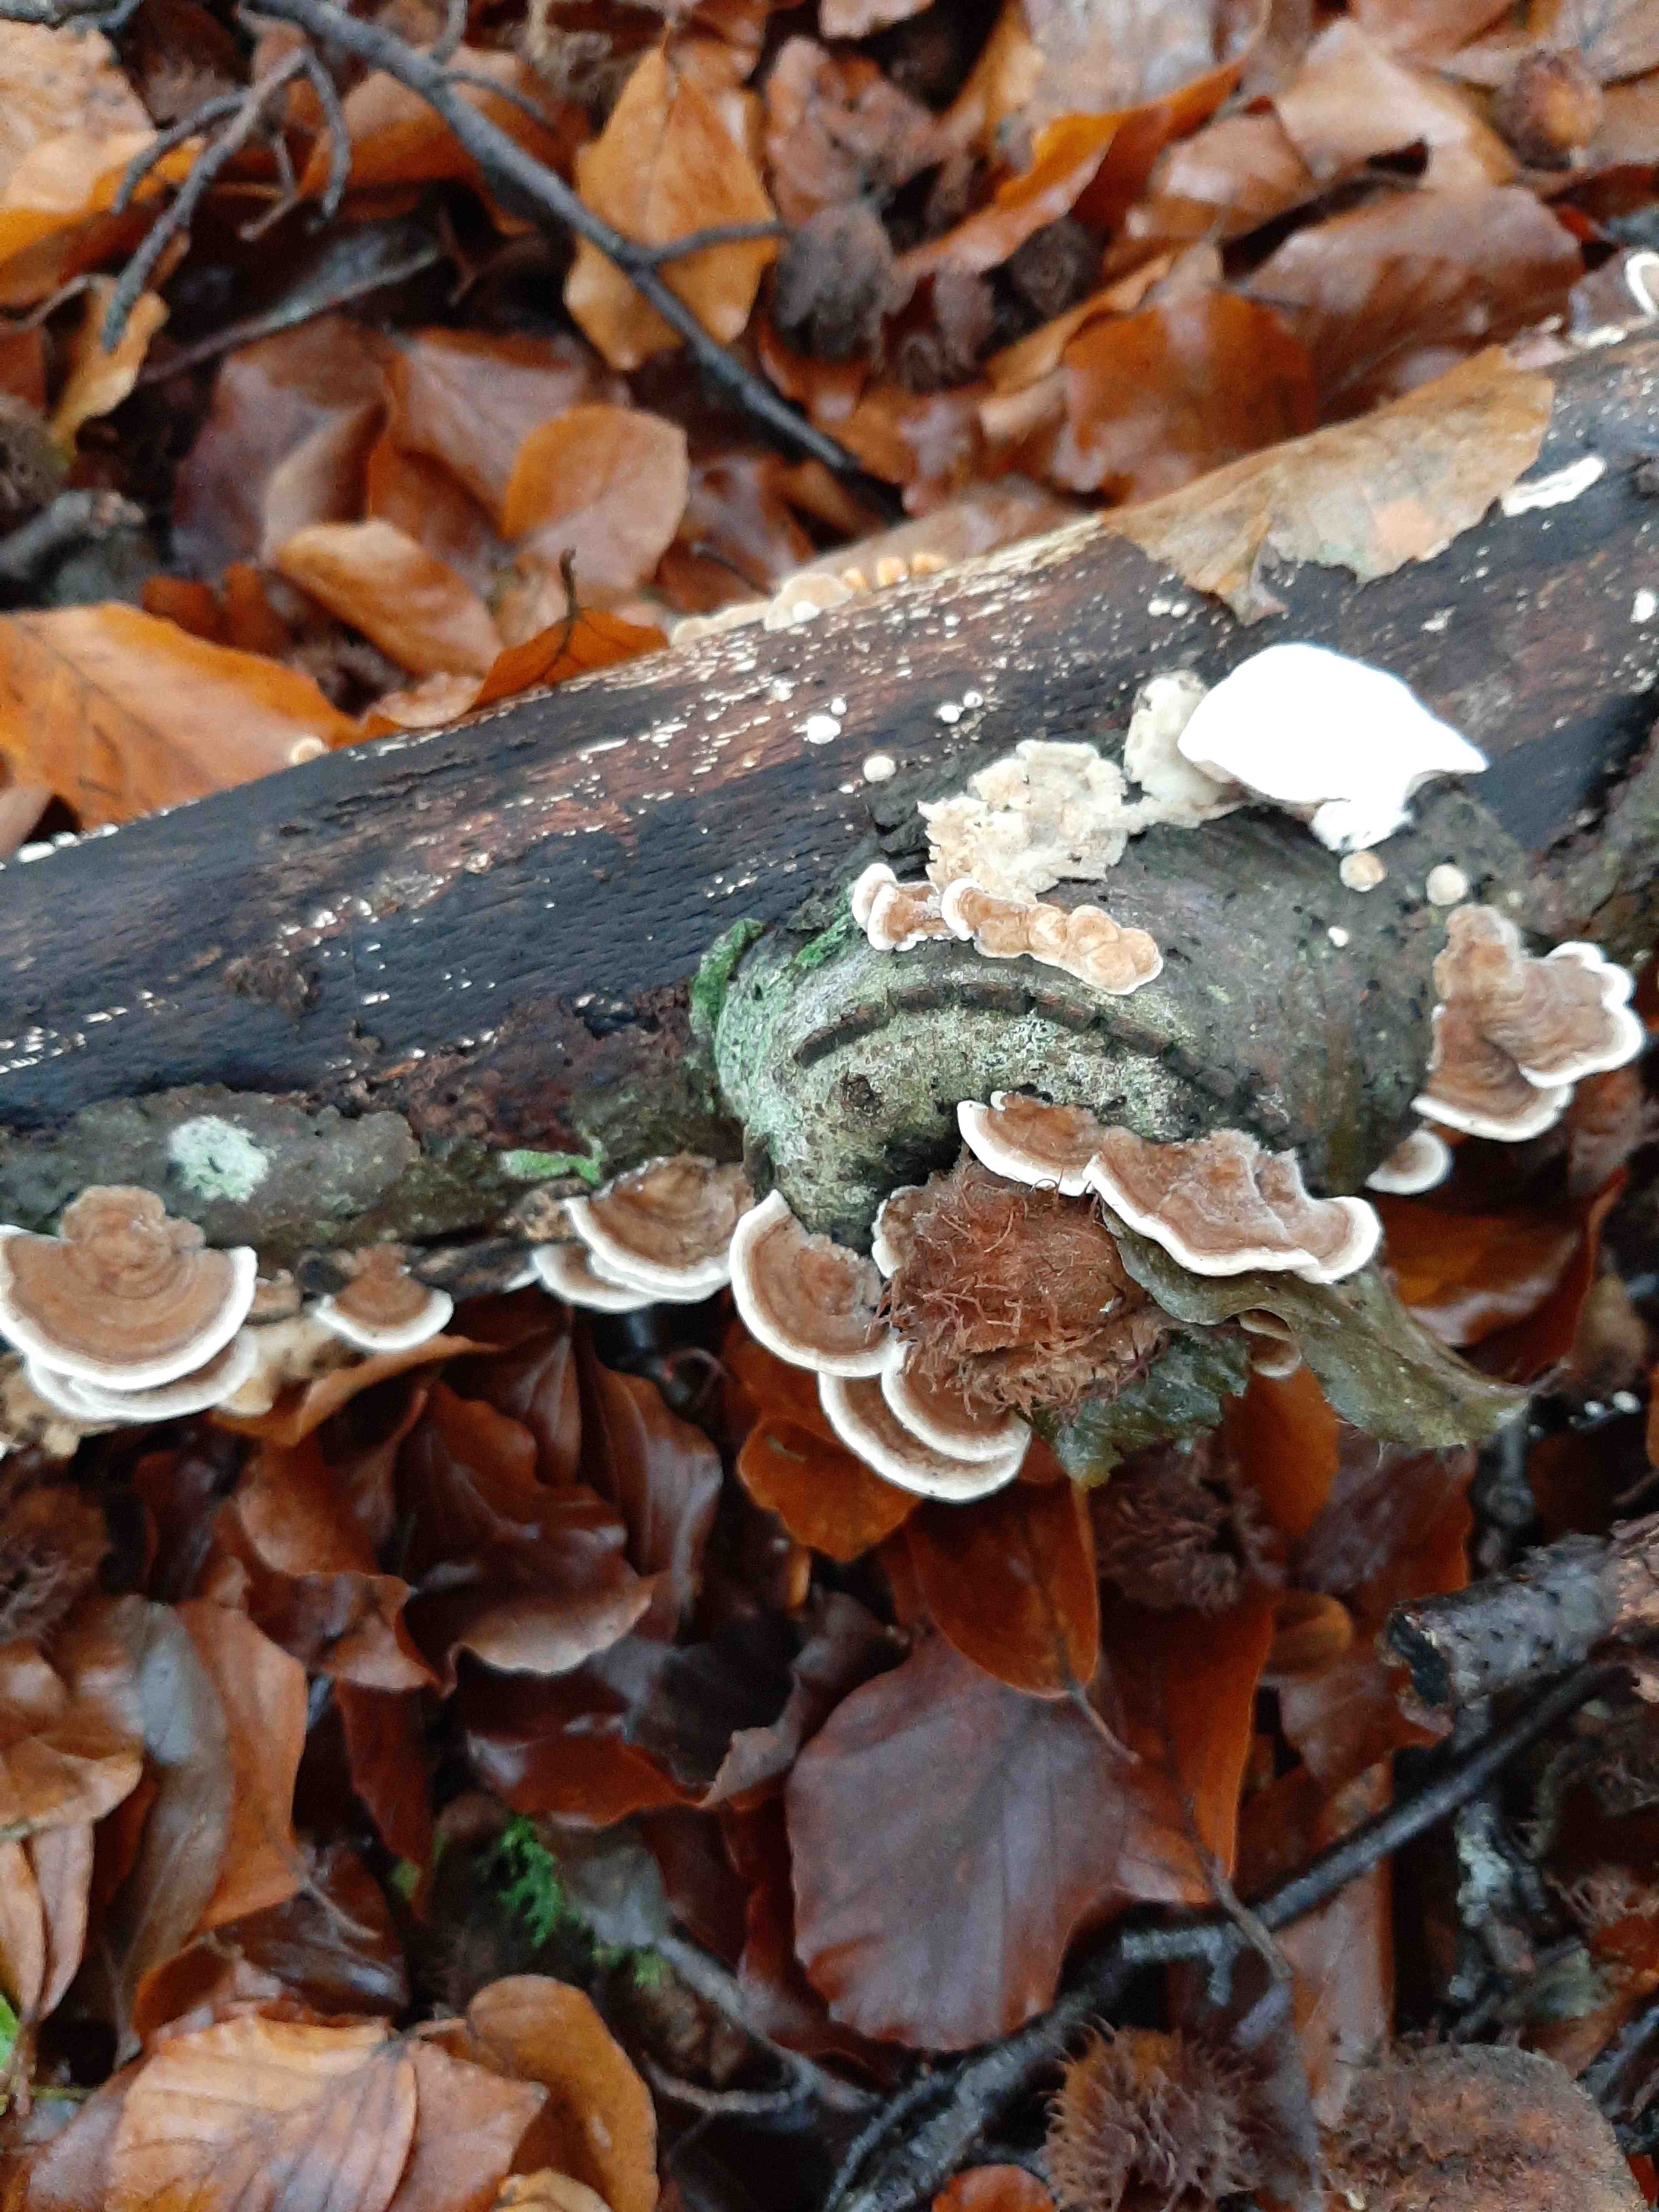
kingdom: Fungi
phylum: Basidiomycota
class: Agaricomycetes
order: Polyporales
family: Polyporaceae
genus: Trametes
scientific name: Trametes ochracea
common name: bæltet læderporesvamp
